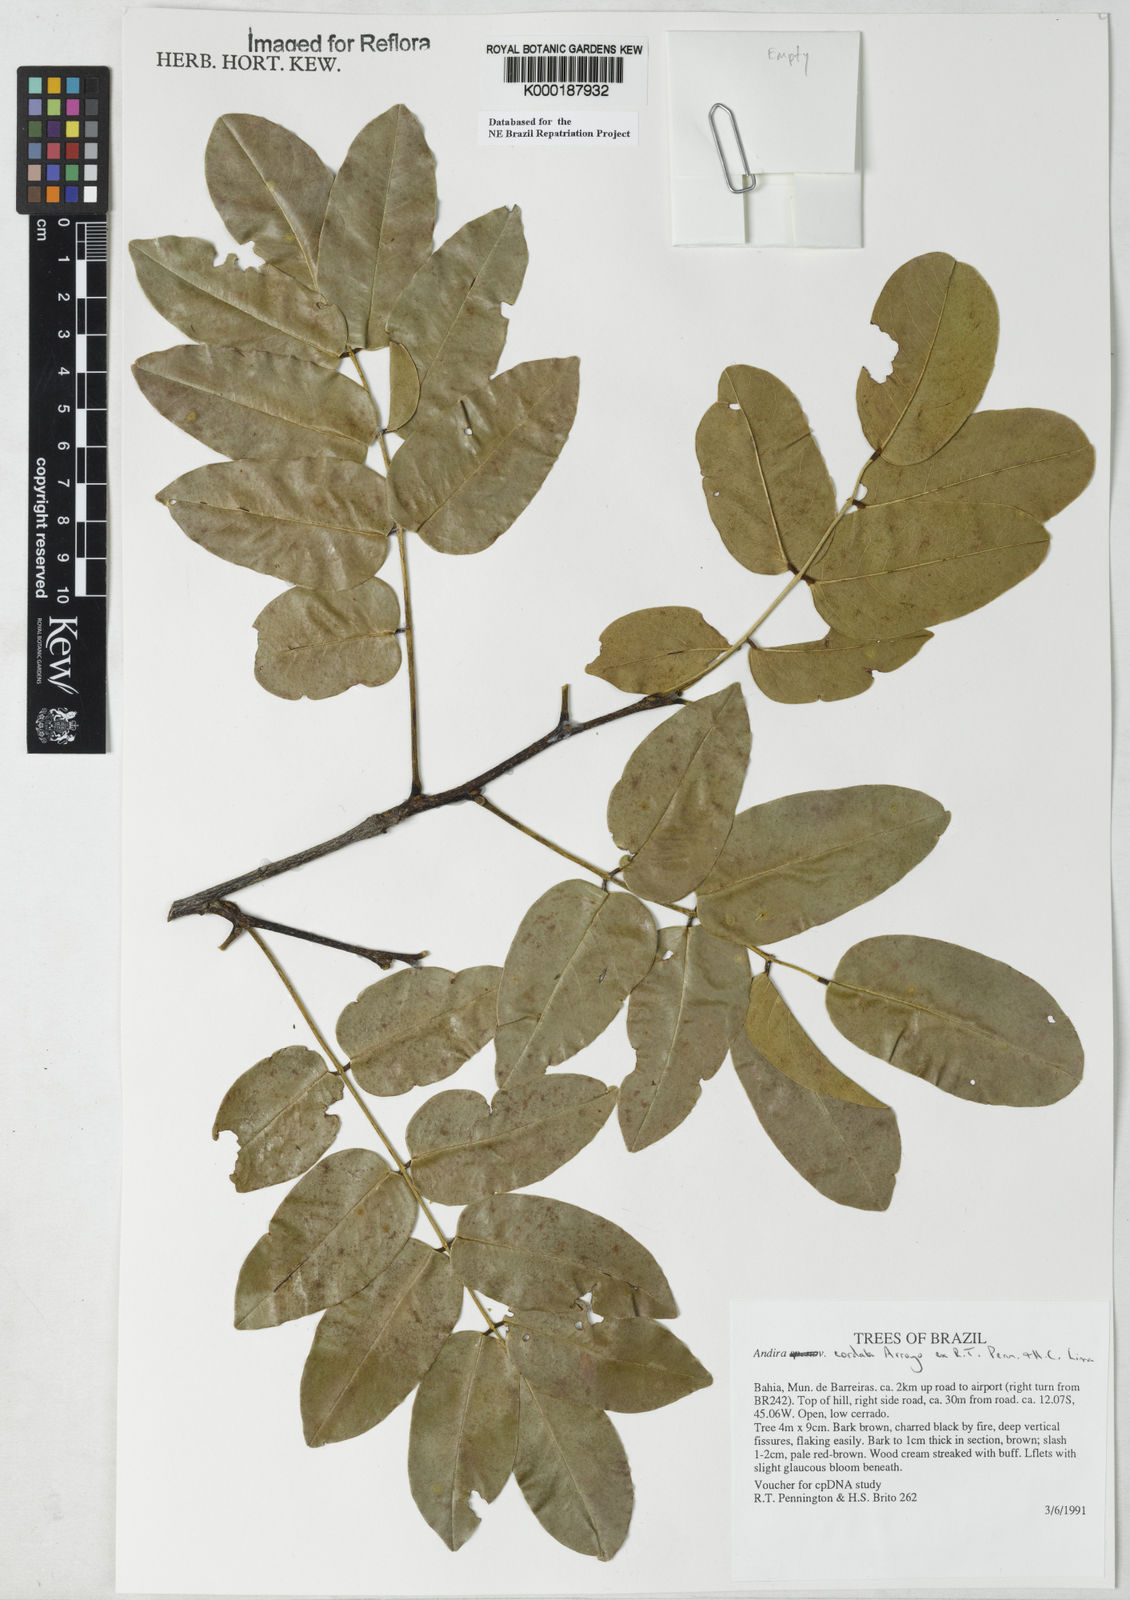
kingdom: Plantae
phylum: Tracheophyta
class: Magnoliopsida
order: Fabales
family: Fabaceae
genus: Andira
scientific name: Andira cordata
